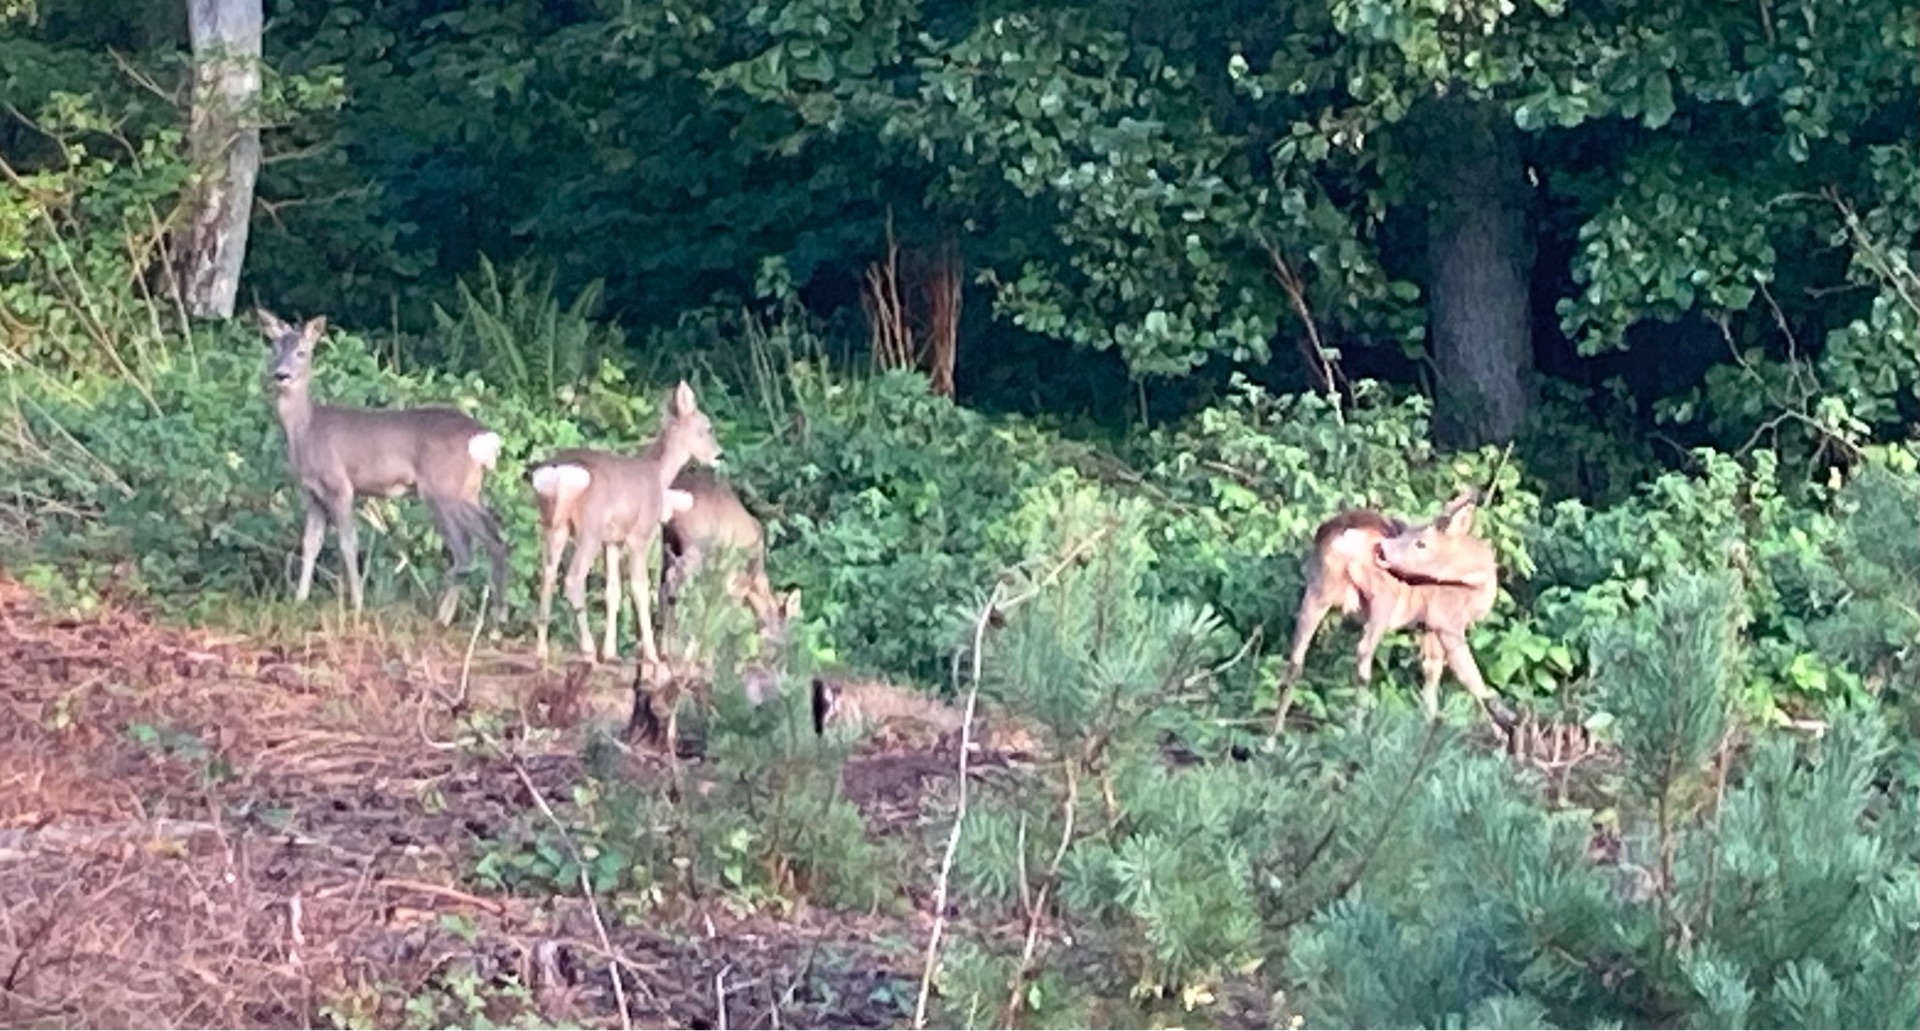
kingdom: Animalia
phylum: Chordata
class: Mammalia
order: Artiodactyla
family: Cervidae
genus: Capreolus
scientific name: Capreolus capreolus
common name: Rådyr
